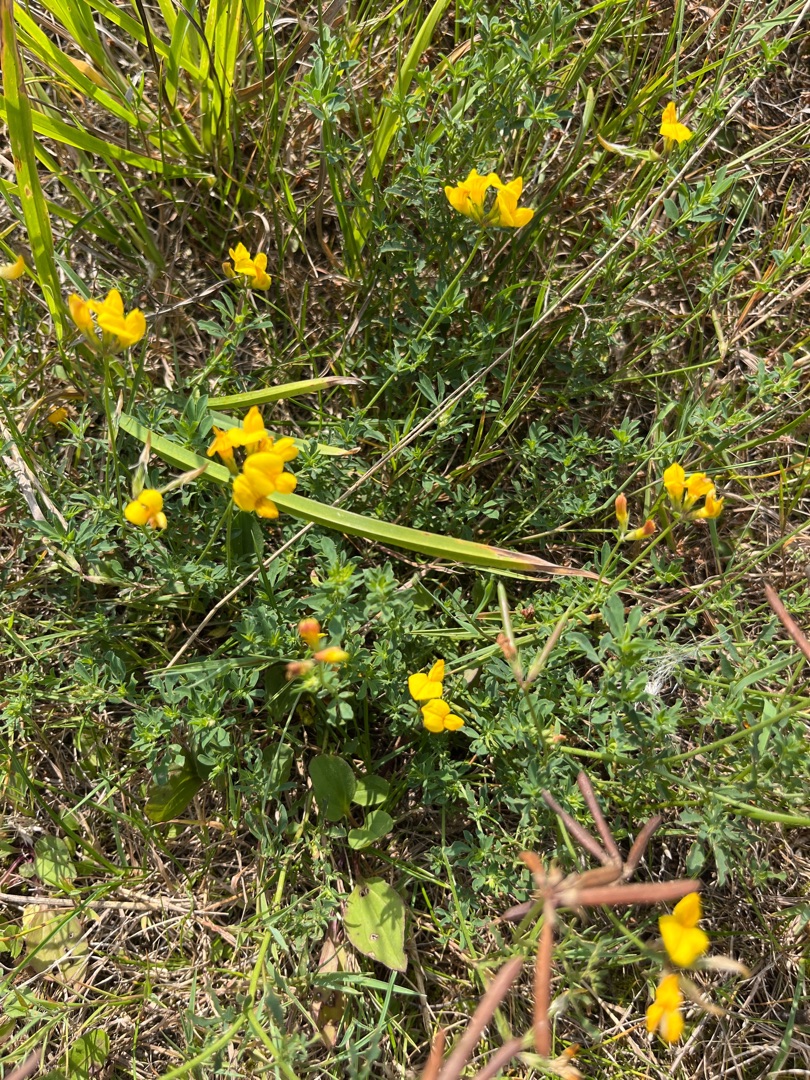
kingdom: Plantae
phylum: Tracheophyta
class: Magnoliopsida
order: Fabales
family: Fabaceae
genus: Lotus
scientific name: Lotus corniculatus
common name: Almindelig kællingetand
